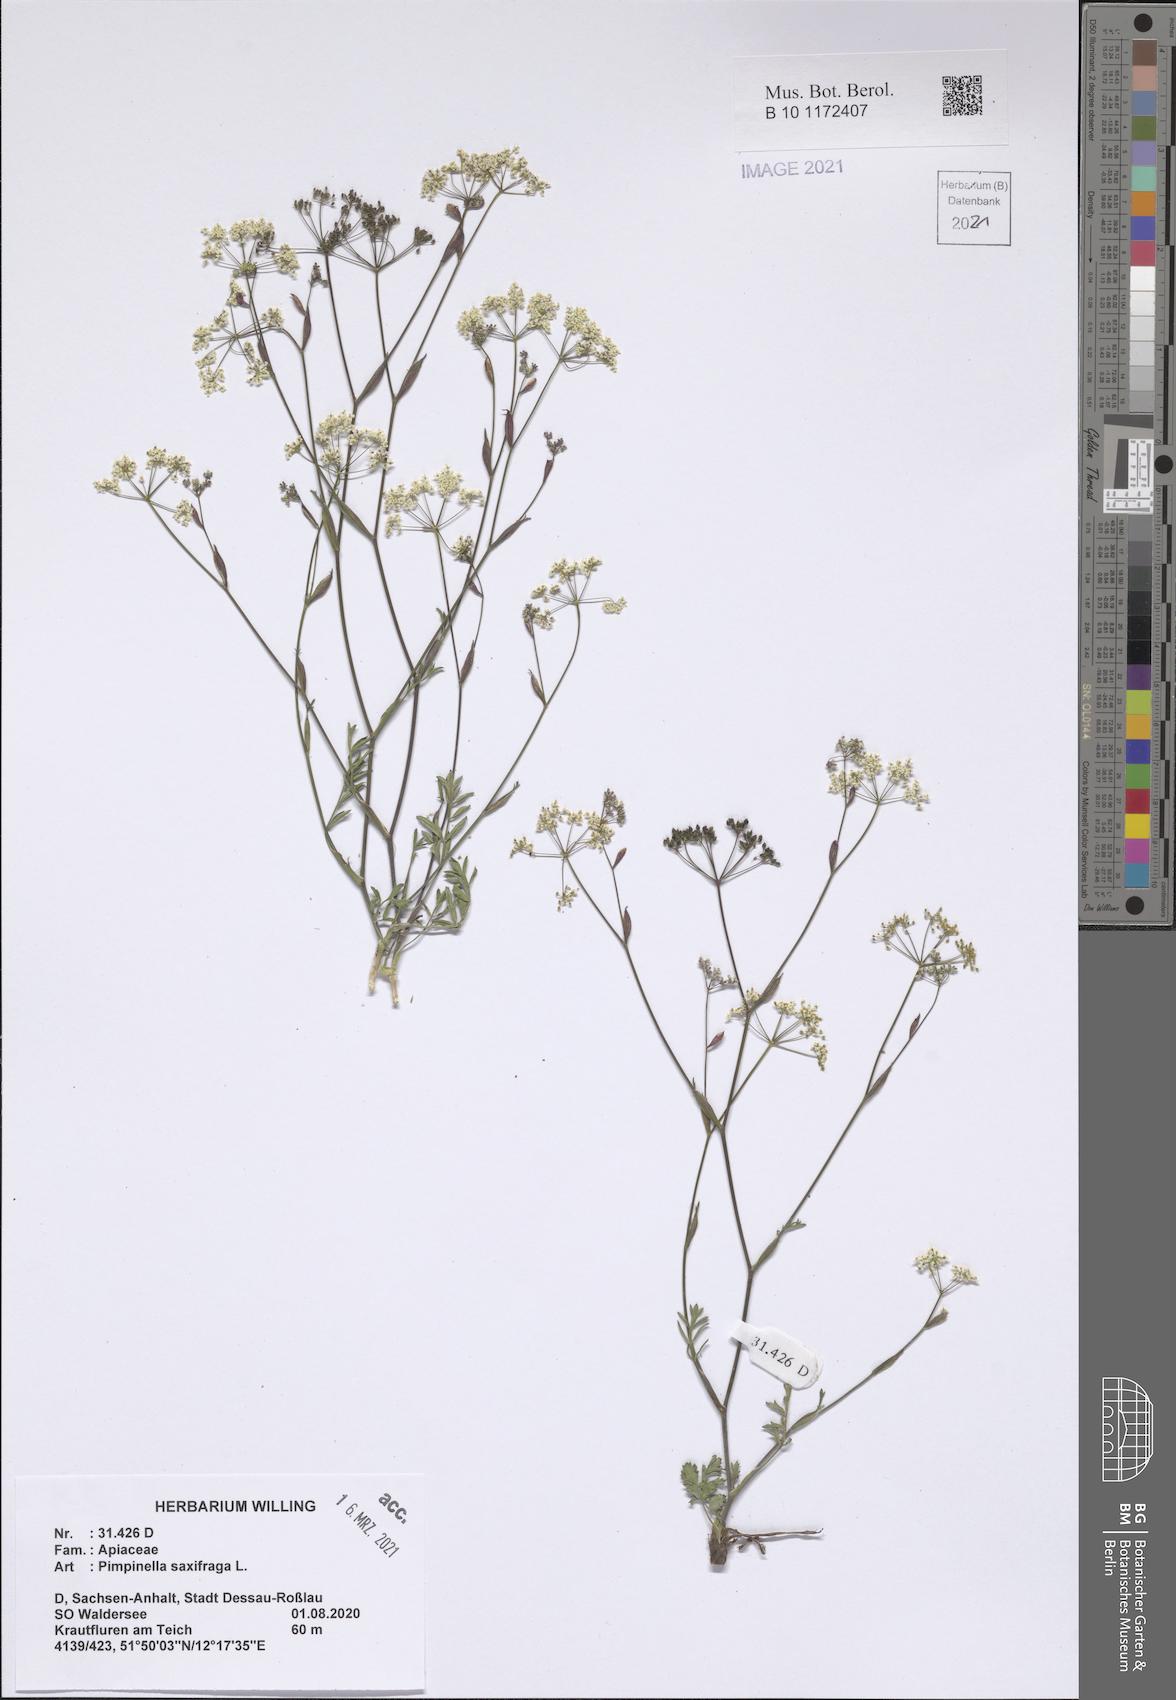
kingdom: Plantae
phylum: Tracheophyta
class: Magnoliopsida
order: Apiales
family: Apiaceae
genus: Pimpinella
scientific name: Pimpinella saxifraga
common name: Burnet-saxifrage
